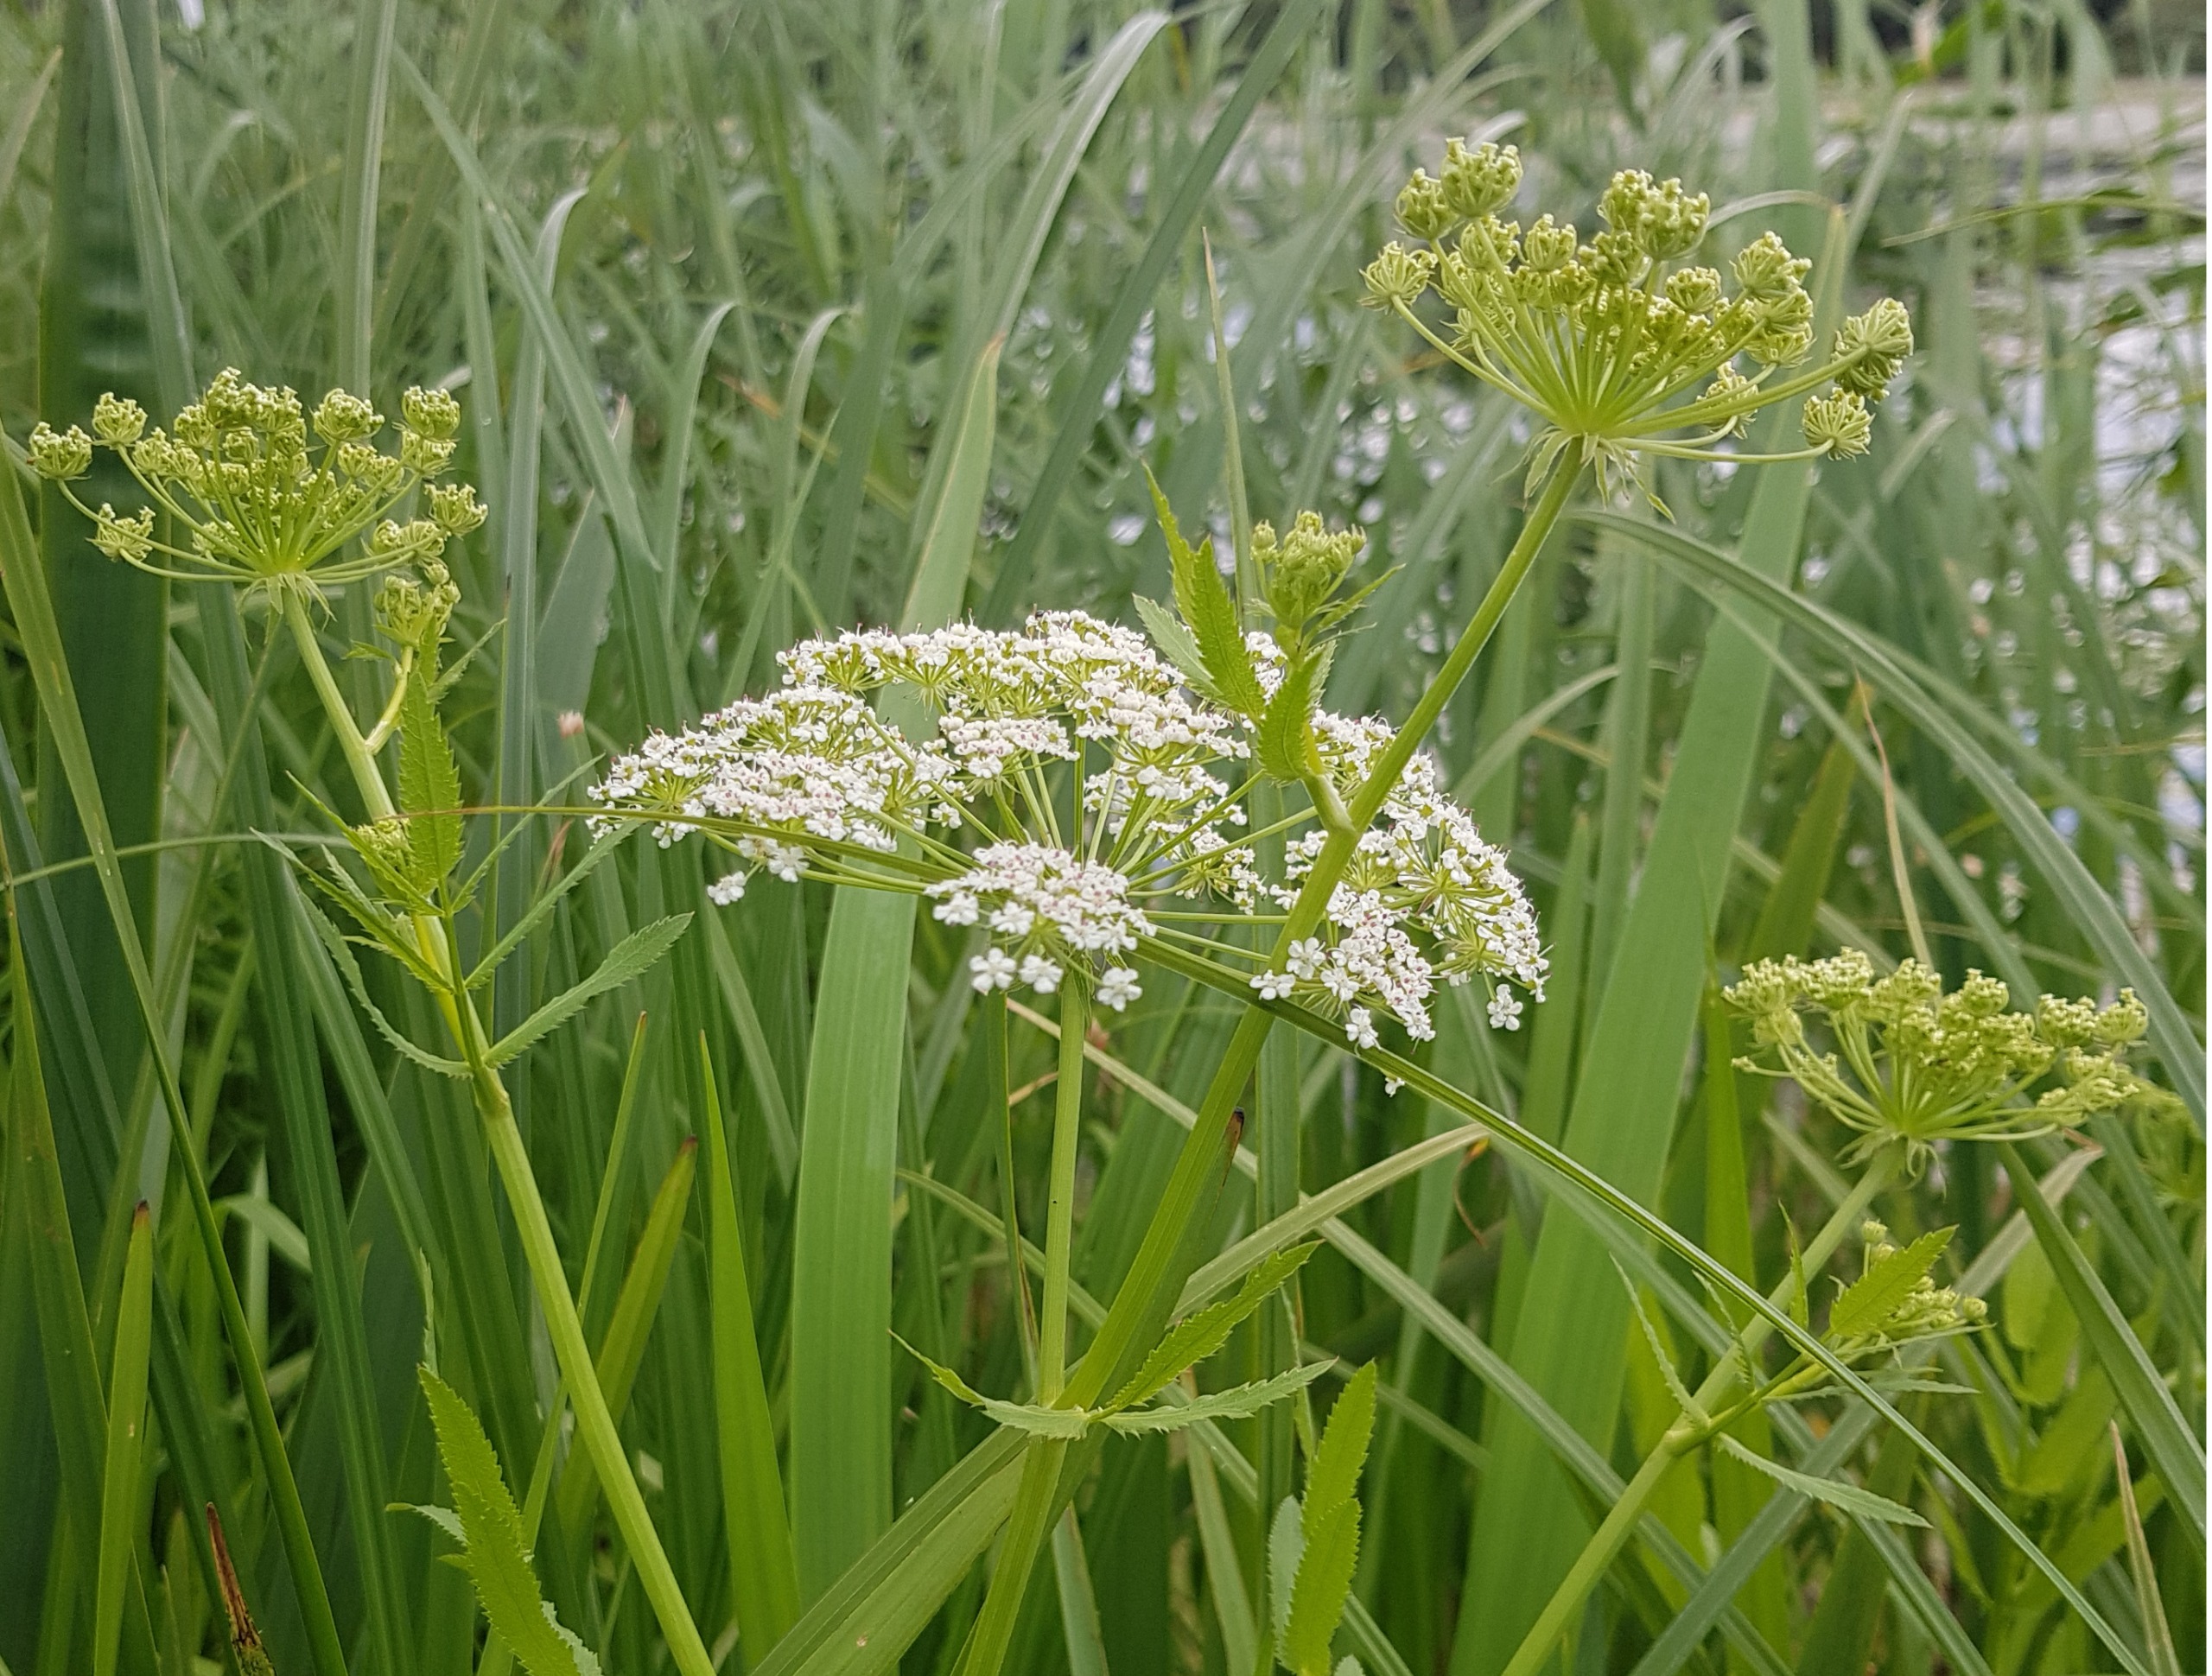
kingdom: Plantae
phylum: Tracheophyta
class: Magnoliopsida
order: Apiales
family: Apiaceae
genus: Sium
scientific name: Sium latifolium
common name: Bredbladet mærke
